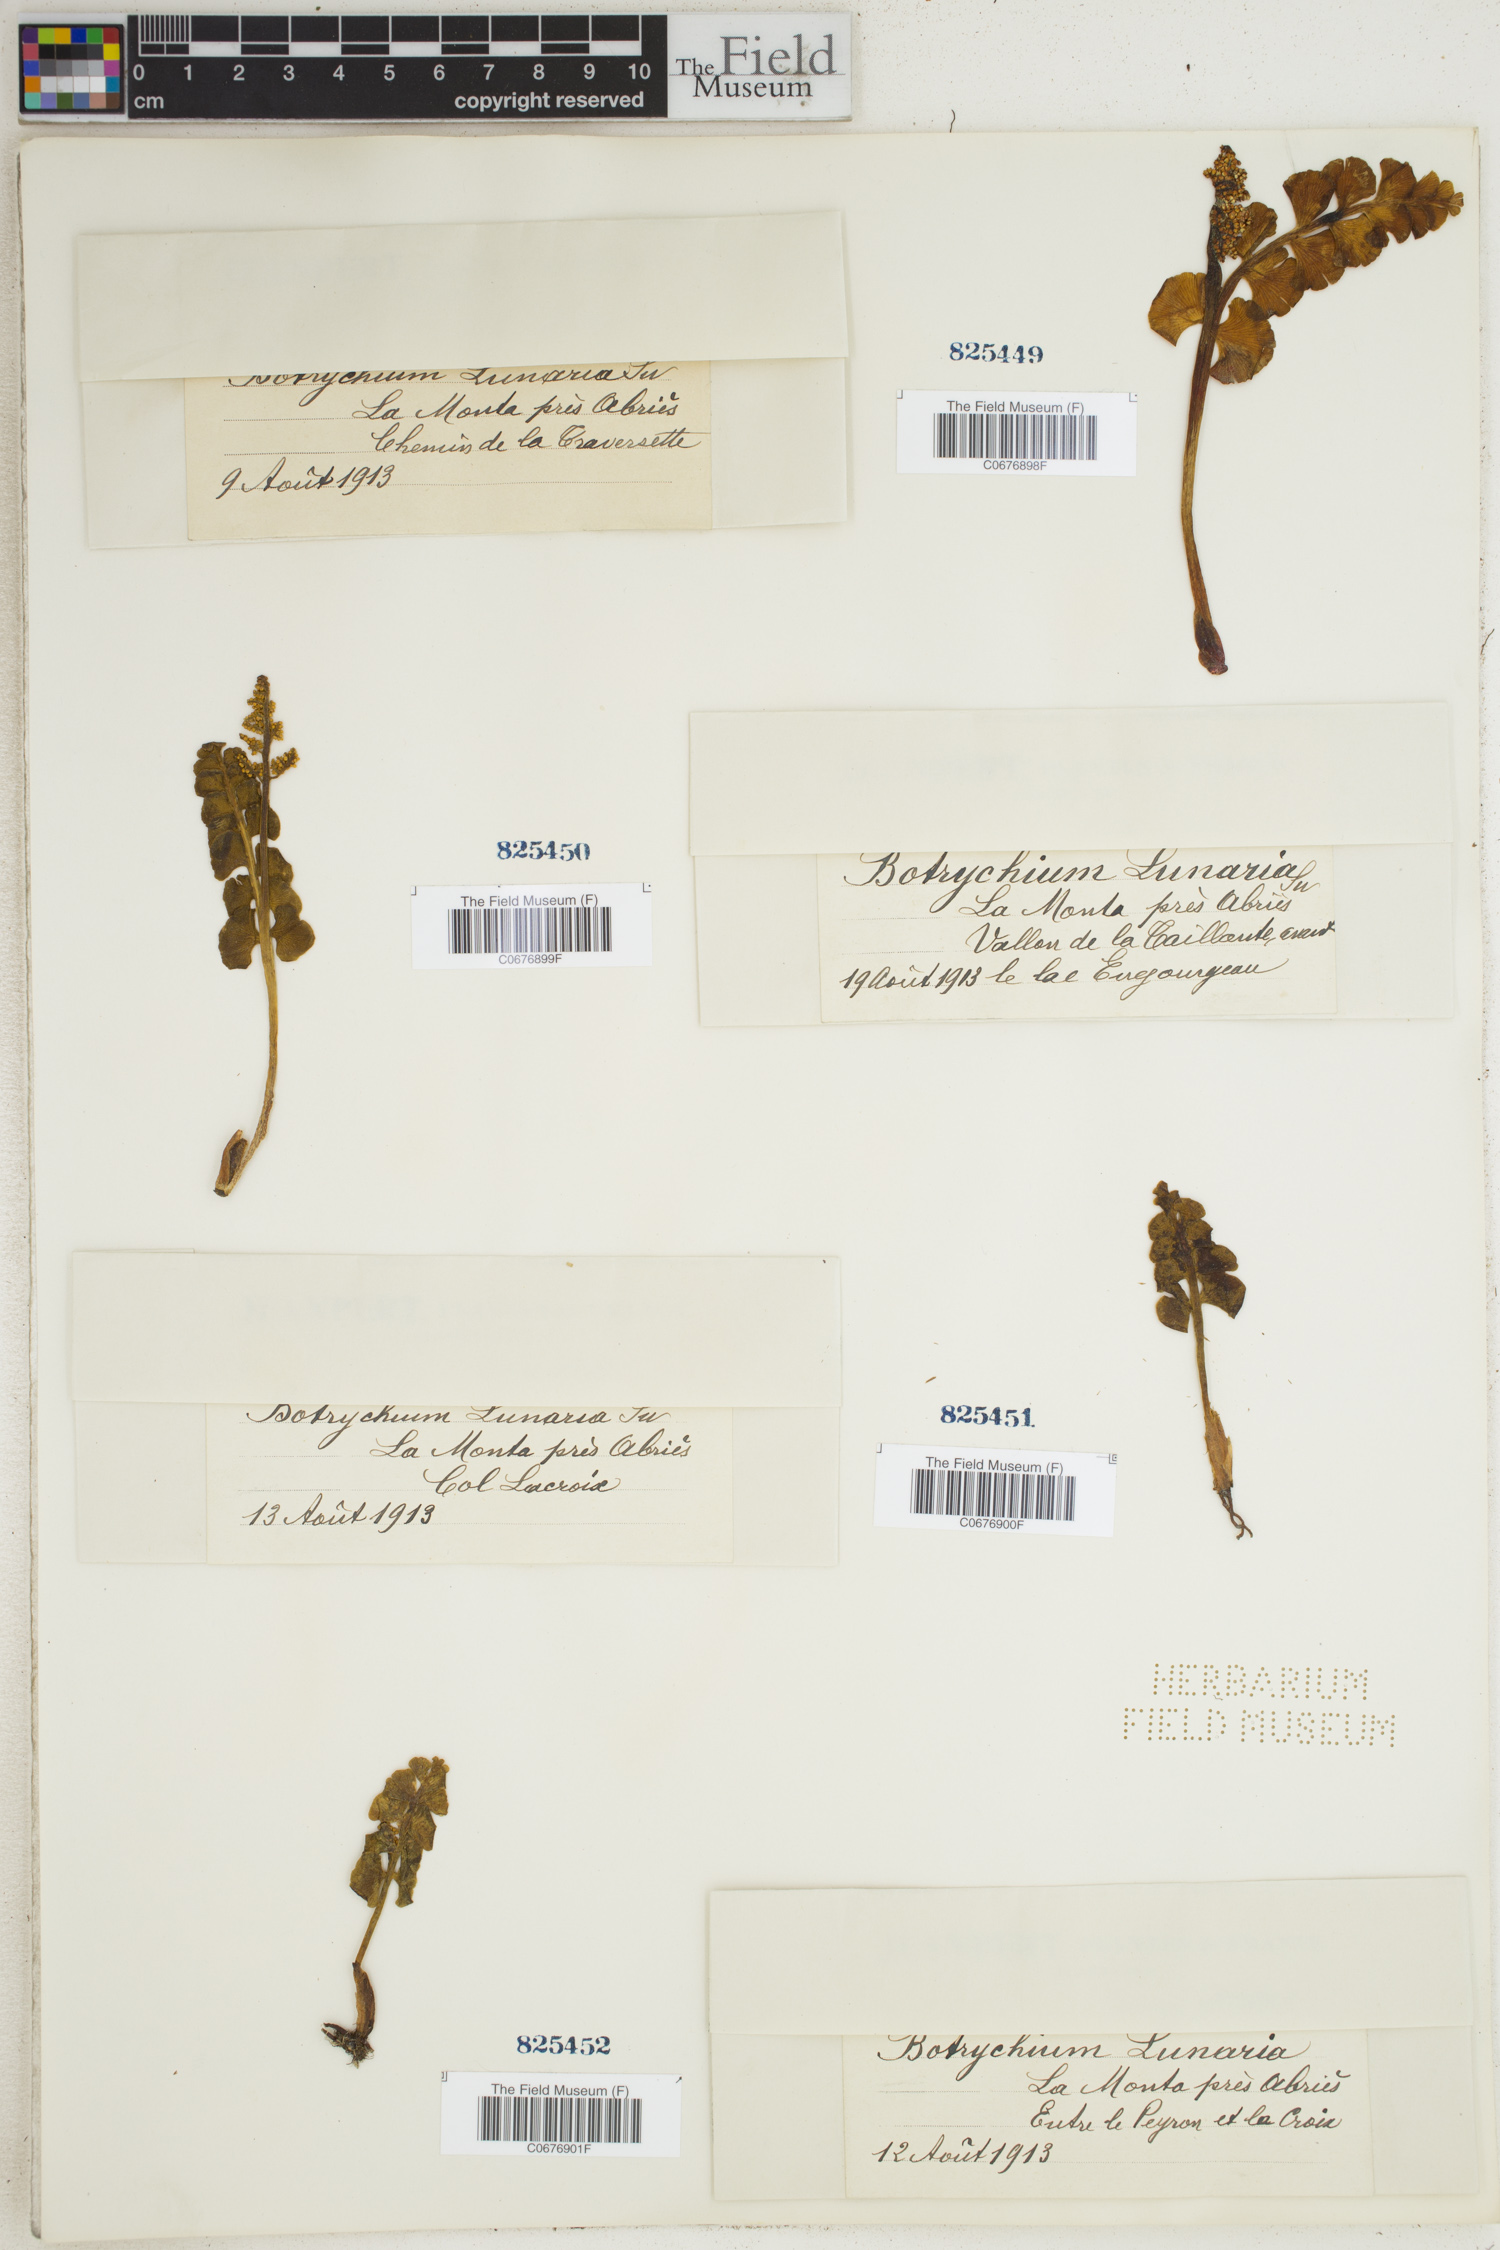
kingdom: Plantae
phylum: Tracheophyta
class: Polypodiopsida
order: Ophioglossales
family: Ophioglossaceae
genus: Botrychium
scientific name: Botrychium lunaria
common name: Moonwort
